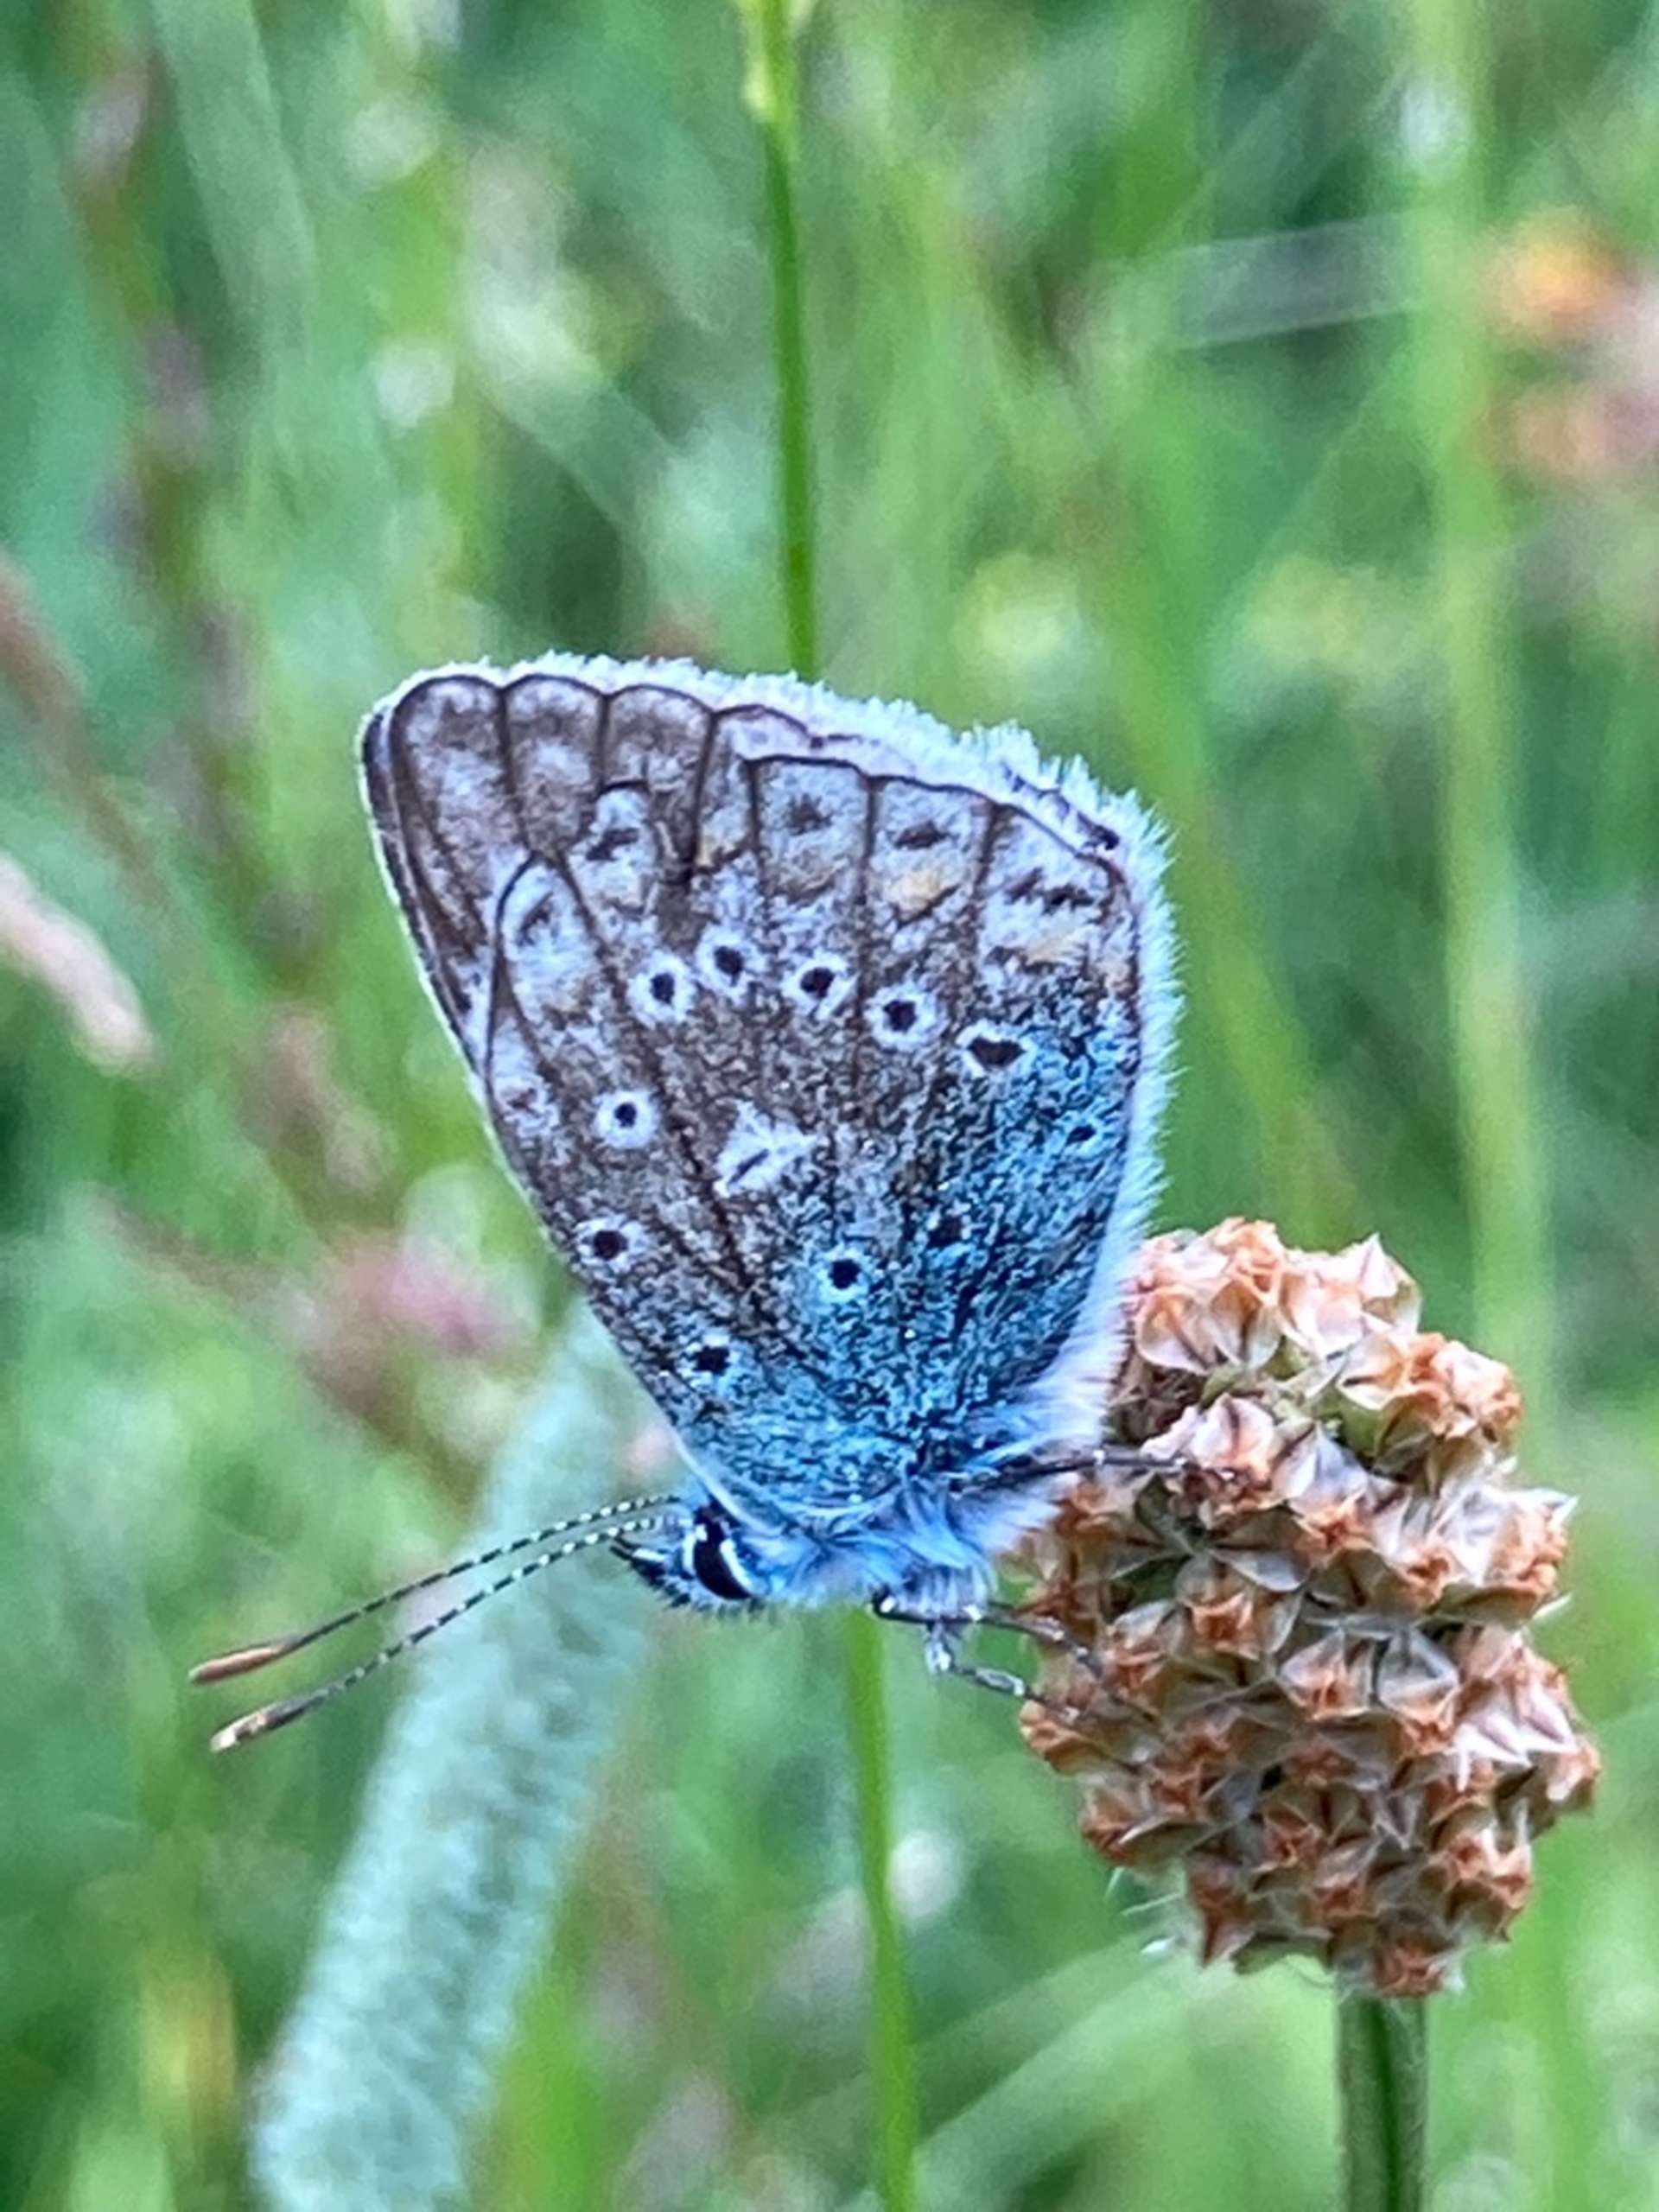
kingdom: Animalia
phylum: Arthropoda
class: Insecta
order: Lepidoptera
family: Lycaenidae
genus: Polyommatus
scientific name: Polyommatus icarus
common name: Almindelig blåfugl
